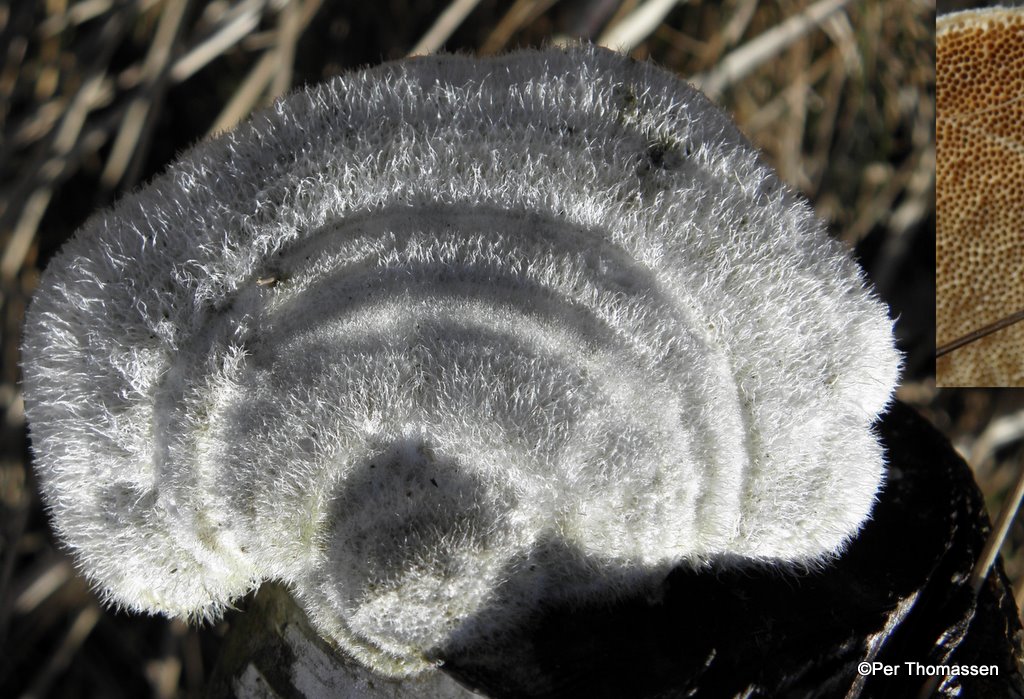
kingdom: Fungi
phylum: Basidiomycota
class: Agaricomycetes
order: Polyporales
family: Polyporaceae
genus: Trametes
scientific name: Trametes hirsuta
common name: håret læderporesvamp
